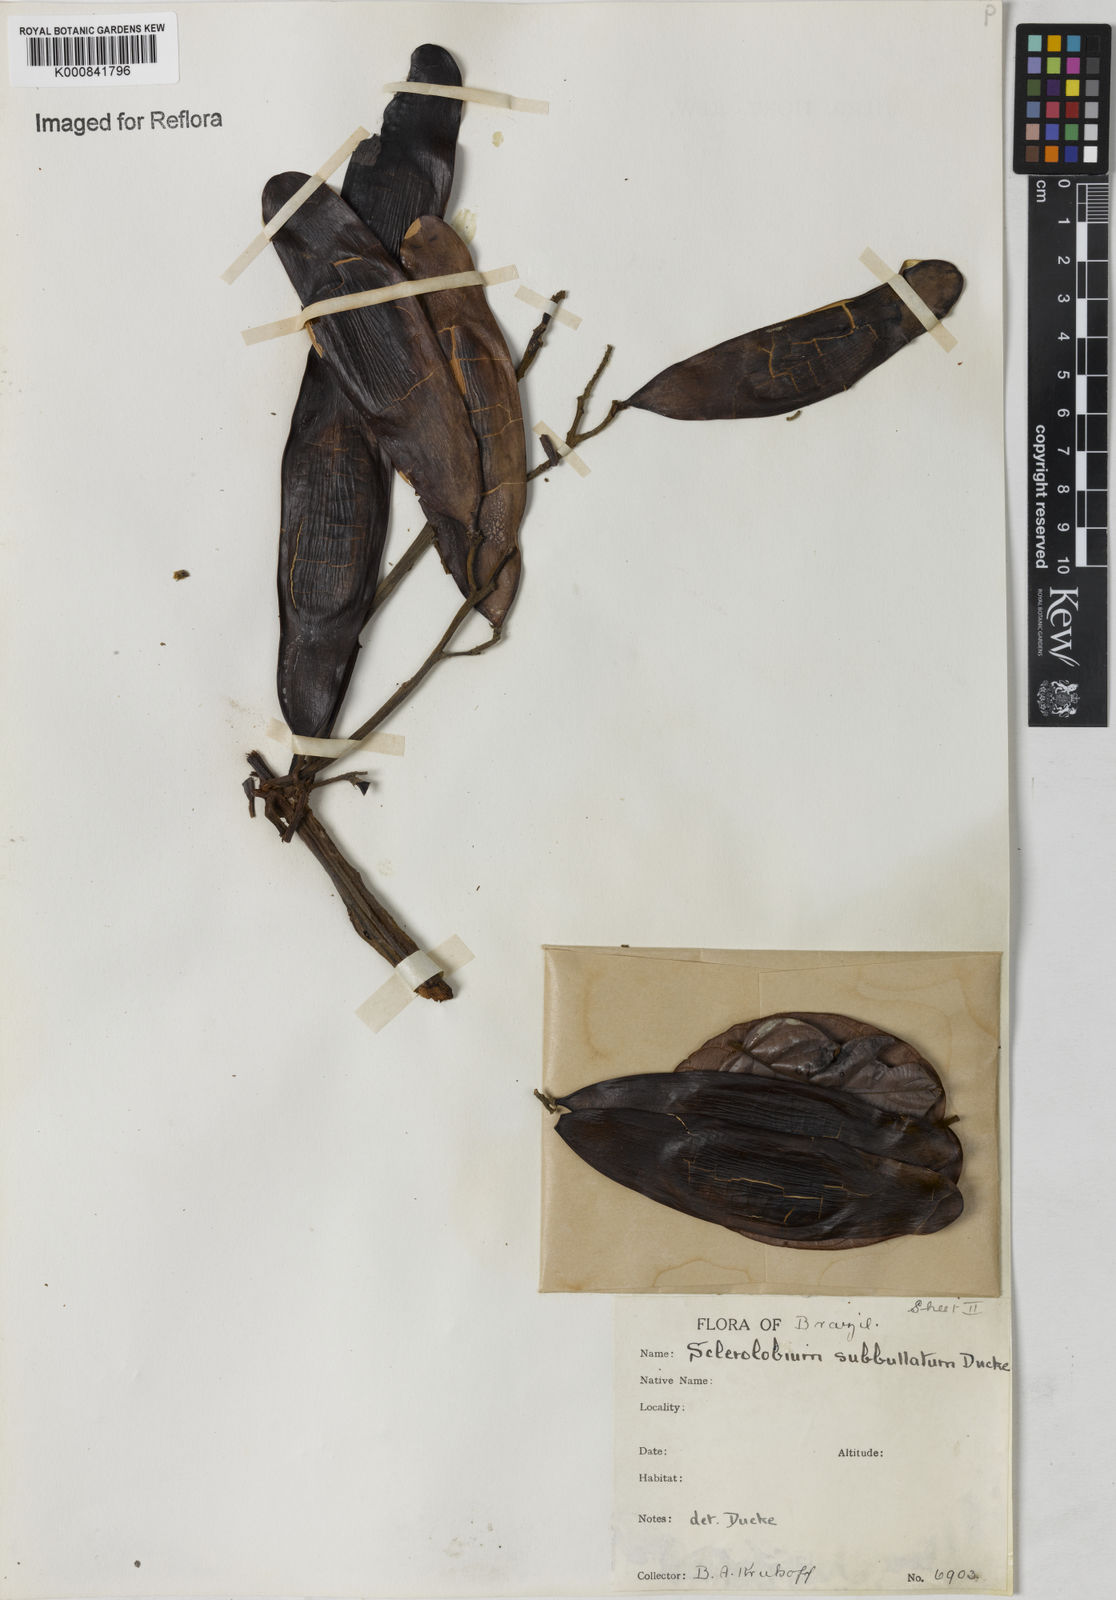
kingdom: Plantae
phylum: Tracheophyta
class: Magnoliopsida
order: Fabales
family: Fabaceae
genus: Tachigali
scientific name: Tachigali guianensis
